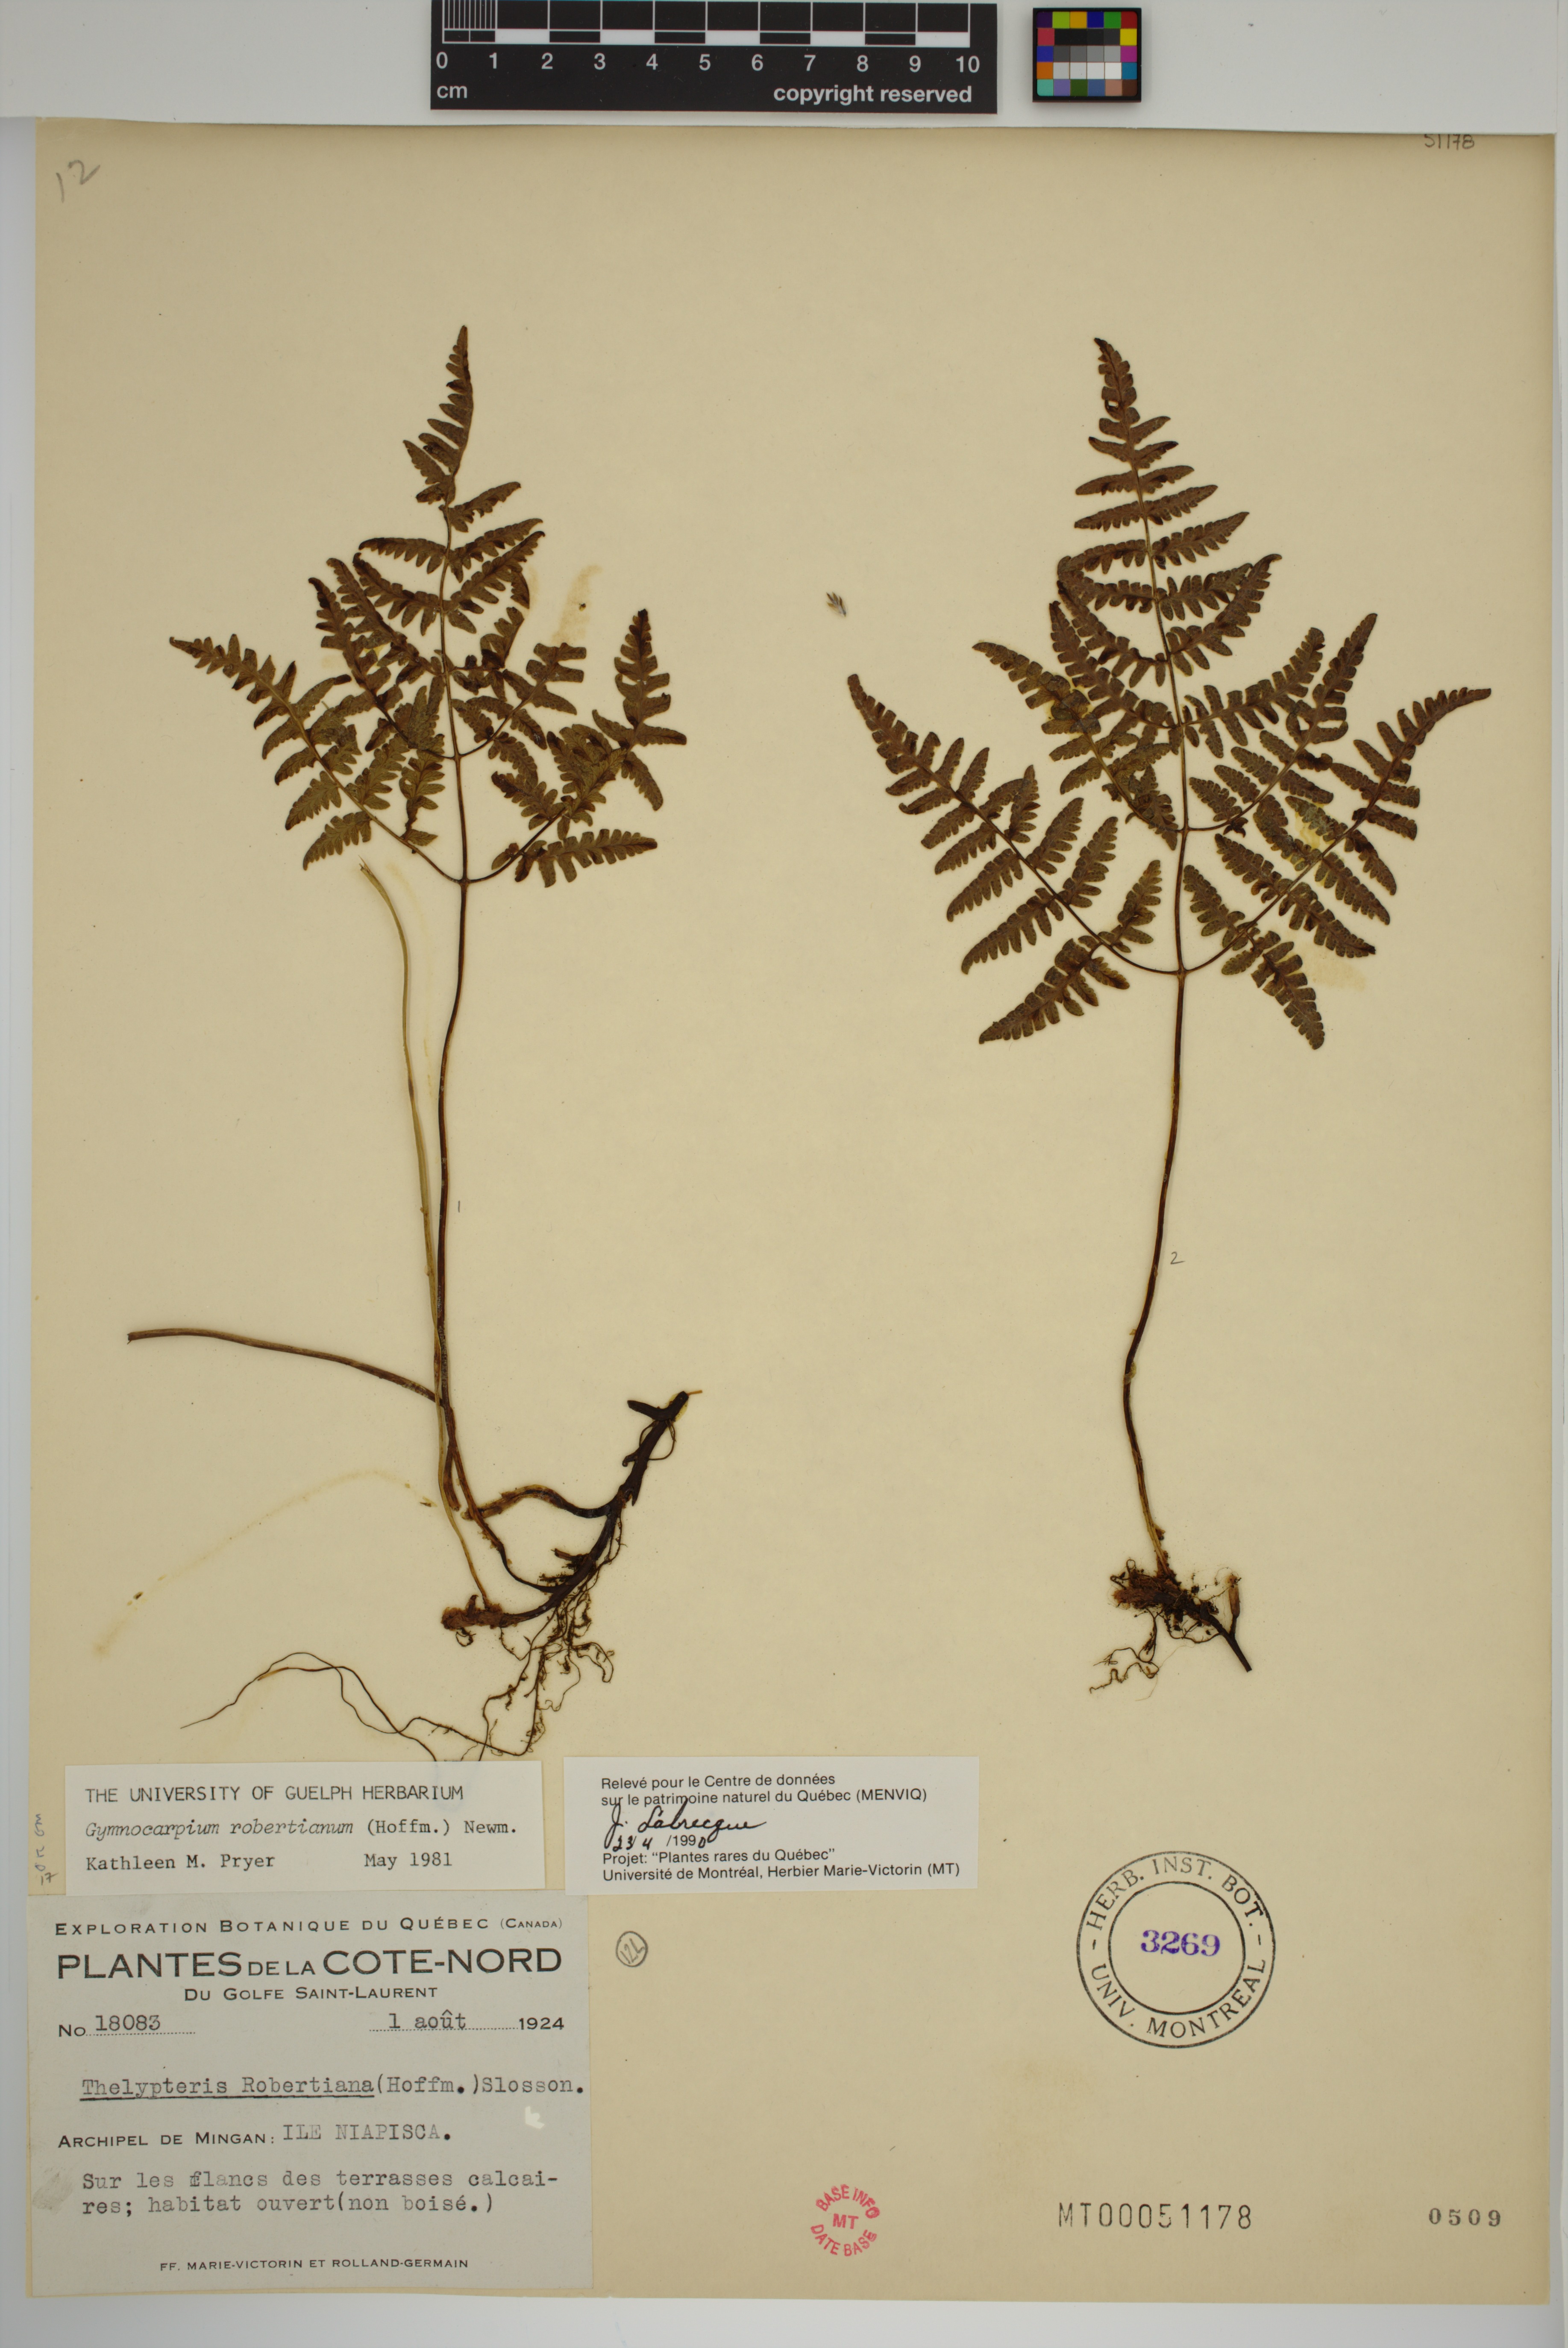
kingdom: Plantae
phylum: Tracheophyta
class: Polypodiopsida
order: Polypodiales
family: Cystopteridaceae
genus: Gymnocarpium
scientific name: Gymnocarpium robertianum
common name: Limestone fern
